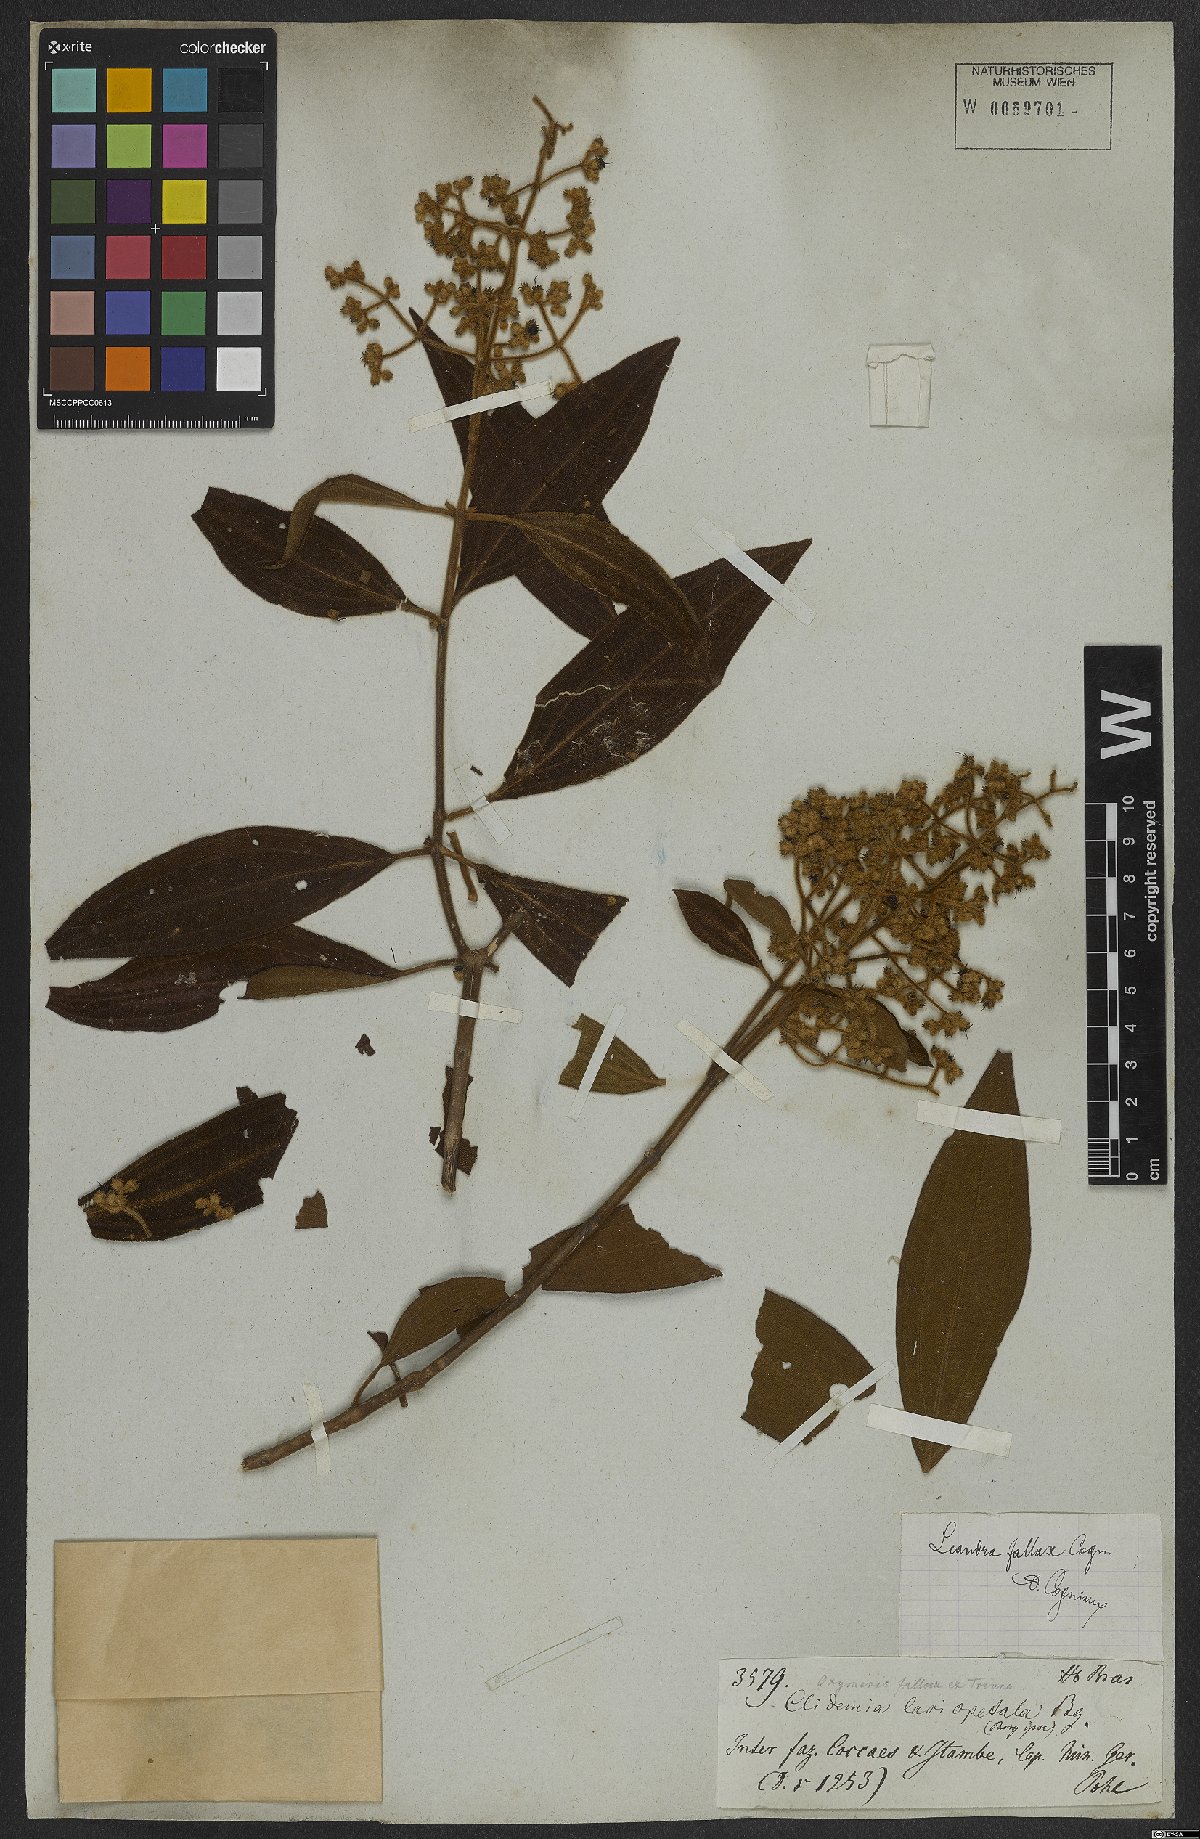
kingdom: Plantae
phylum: Tracheophyta
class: Magnoliopsida
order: Myrtales
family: Melastomataceae
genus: Miconia
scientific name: Miconia leafallax
